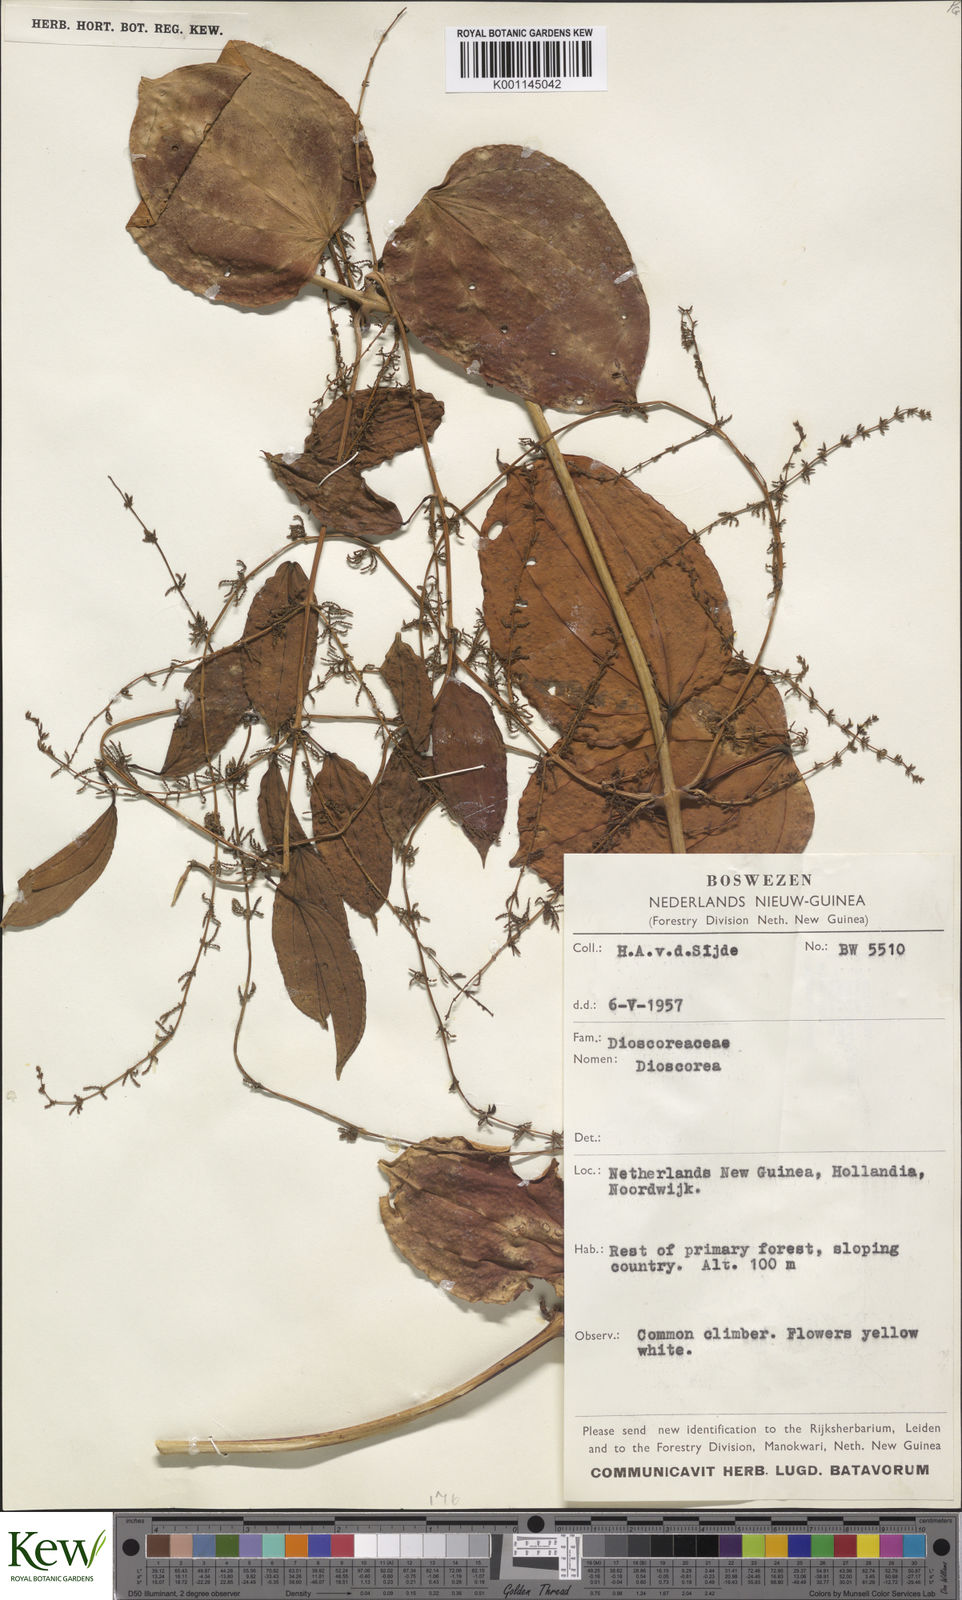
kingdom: Plantae
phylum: Tracheophyta
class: Liliopsida
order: Dioscoreales
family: Dioscoreaceae
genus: Dioscorea
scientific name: Dioscorea
